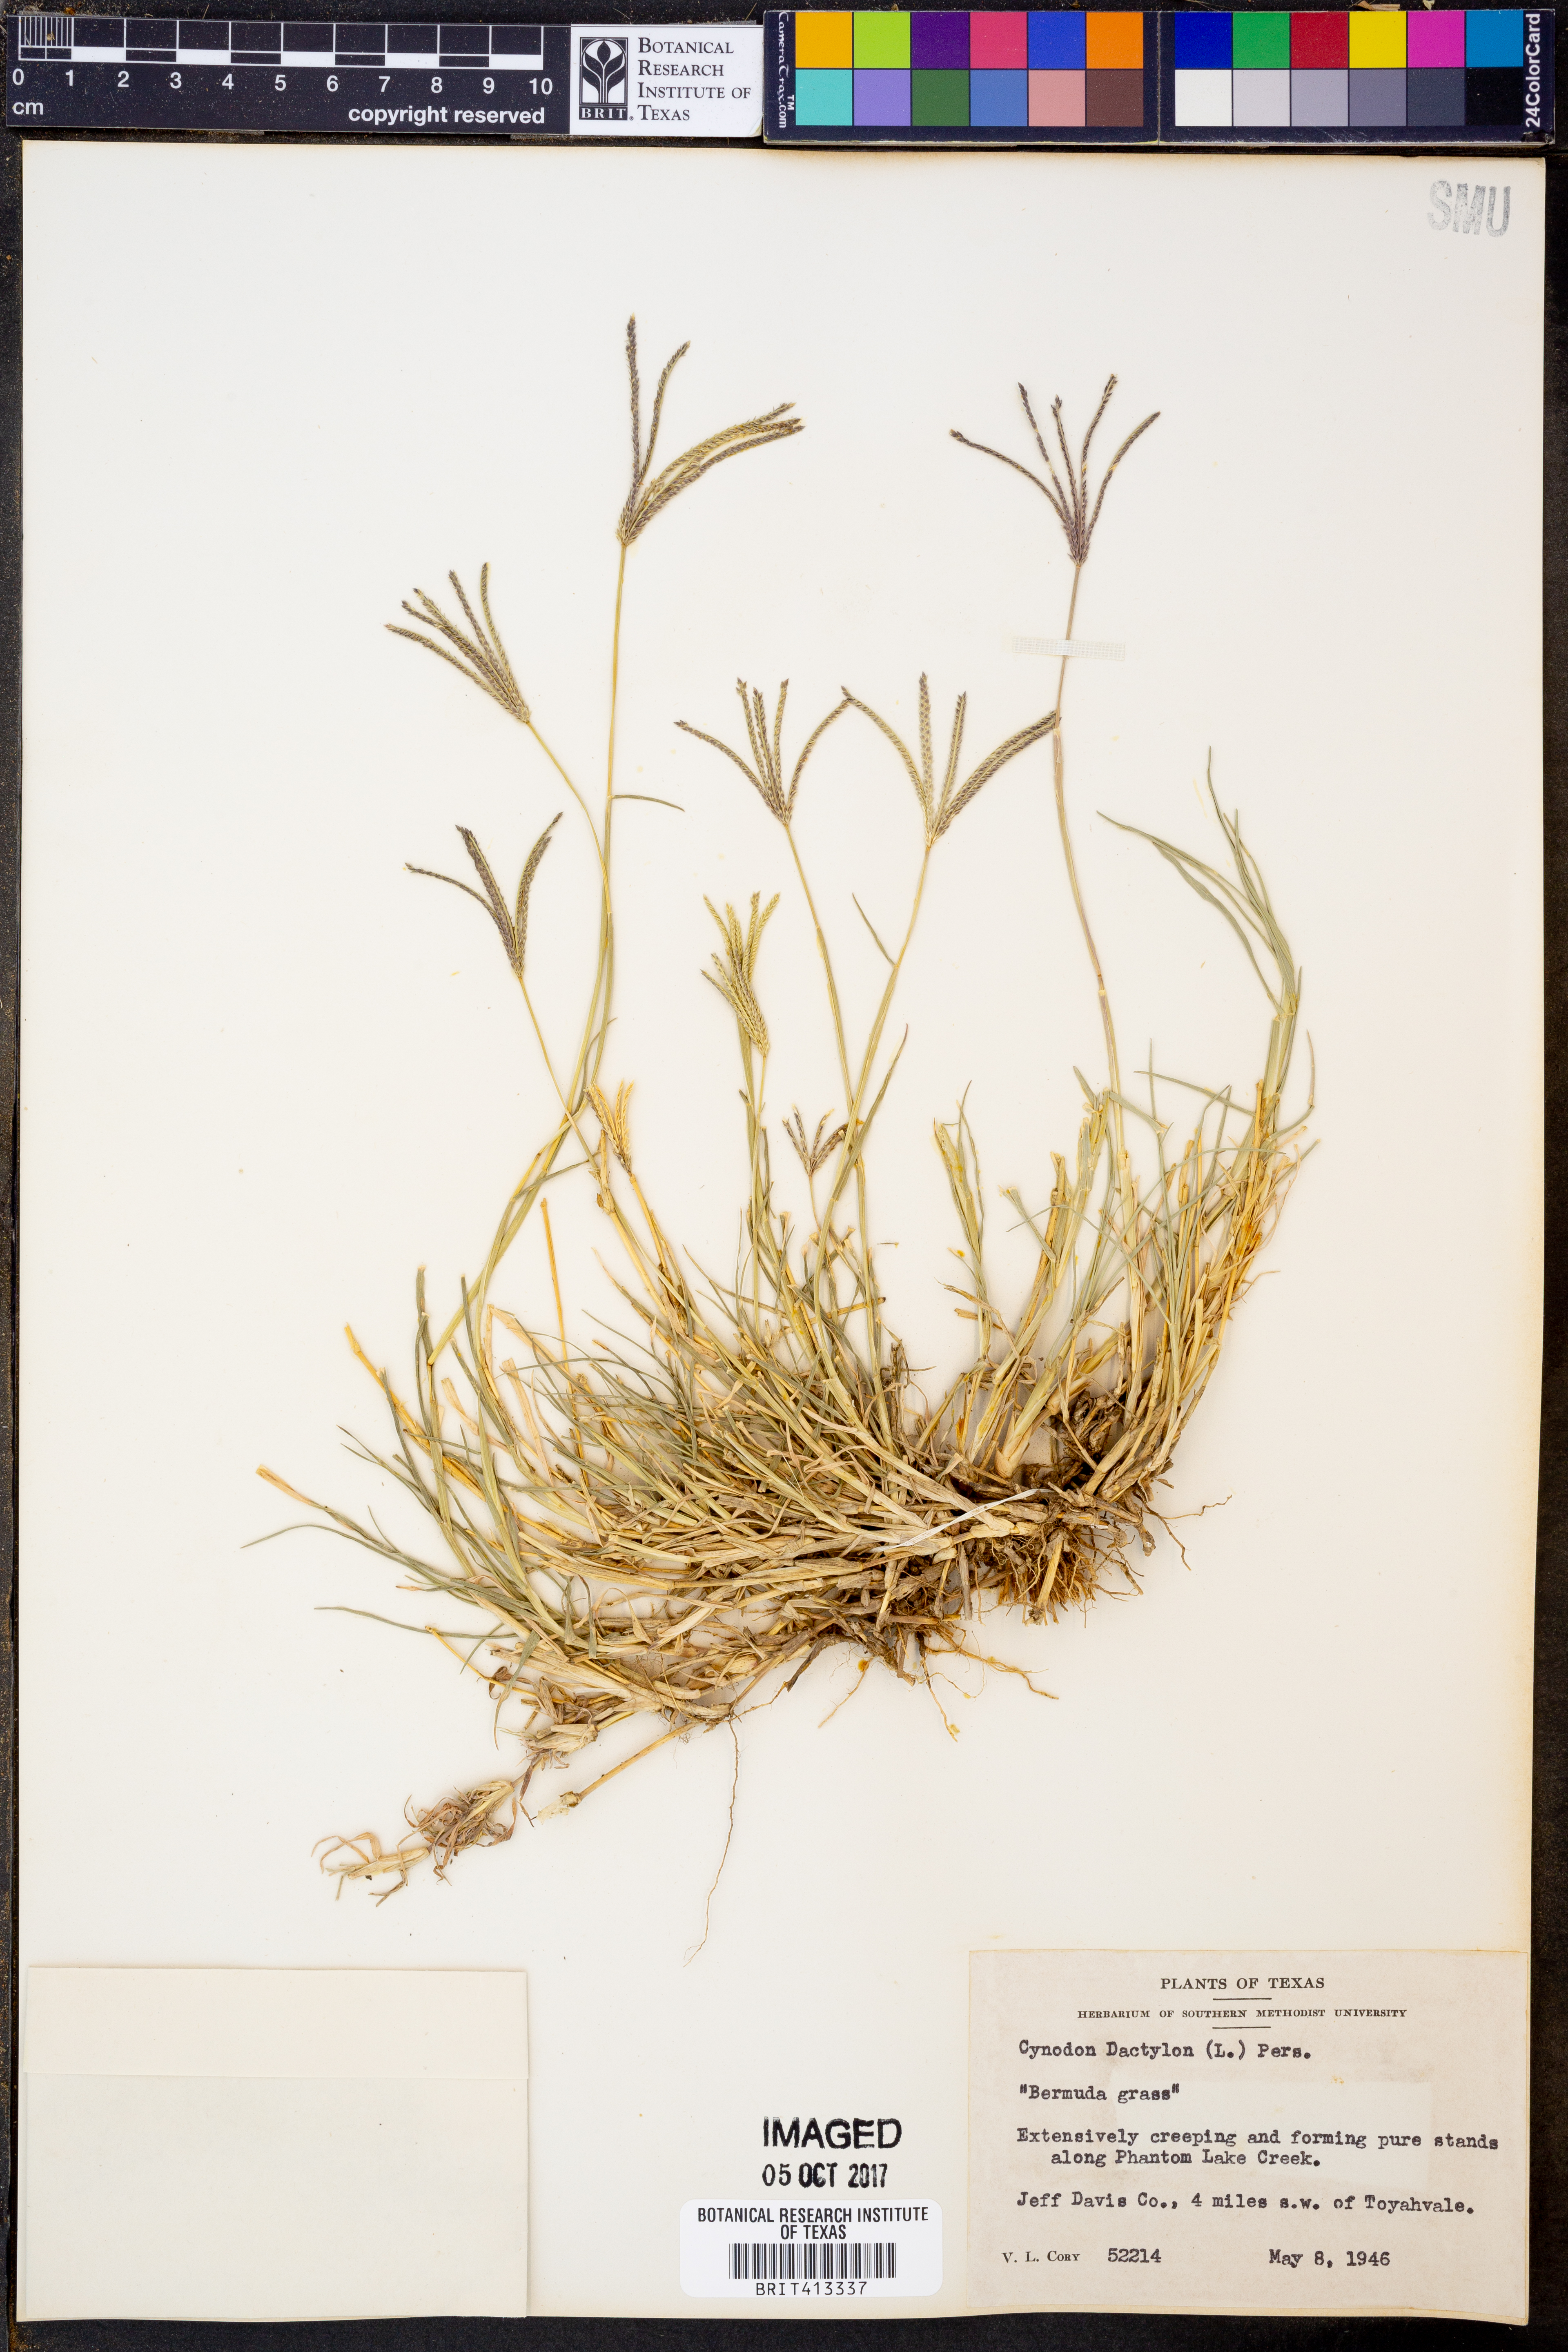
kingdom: Plantae
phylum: Tracheophyta
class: Liliopsida
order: Poales
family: Poaceae
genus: Cynodon
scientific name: Cynodon dactylon
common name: Bermuda grass
